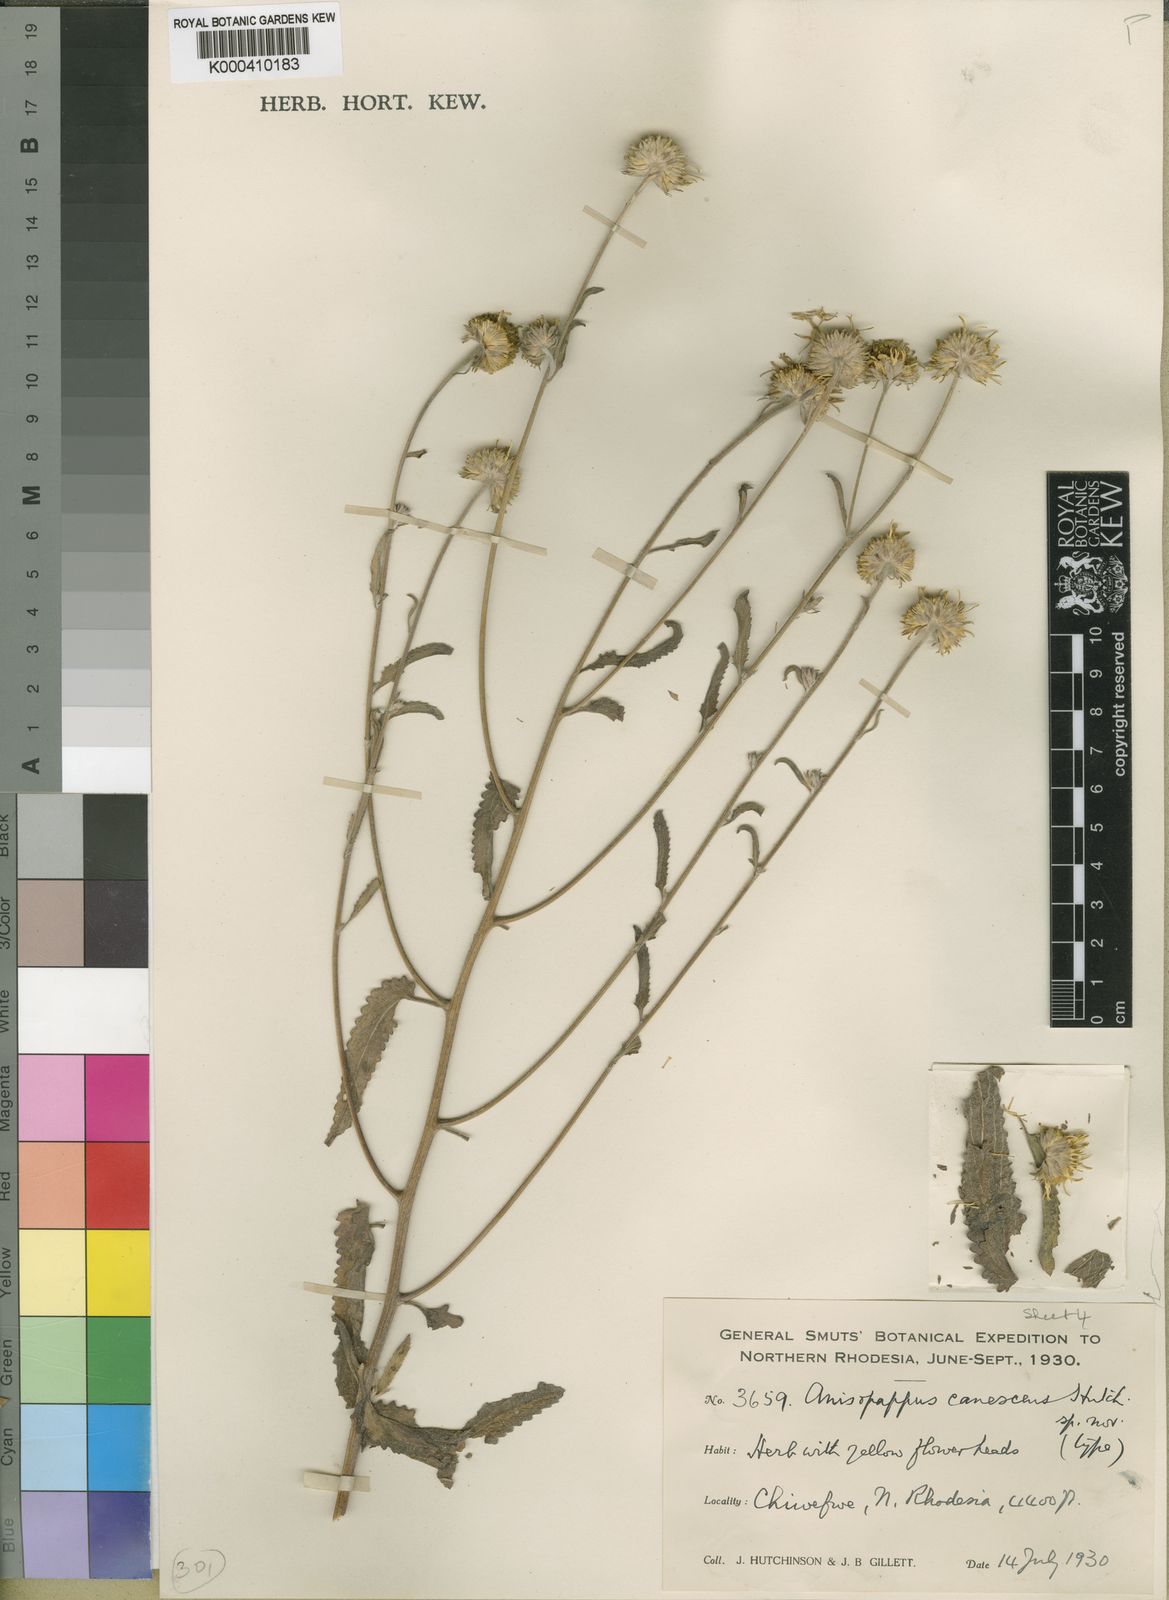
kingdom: Plantae
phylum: Tracheophyta
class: Magnoliopsida
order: Asterales
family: Asteraceae
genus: Anisopappus
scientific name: Anisopappus chinensis
